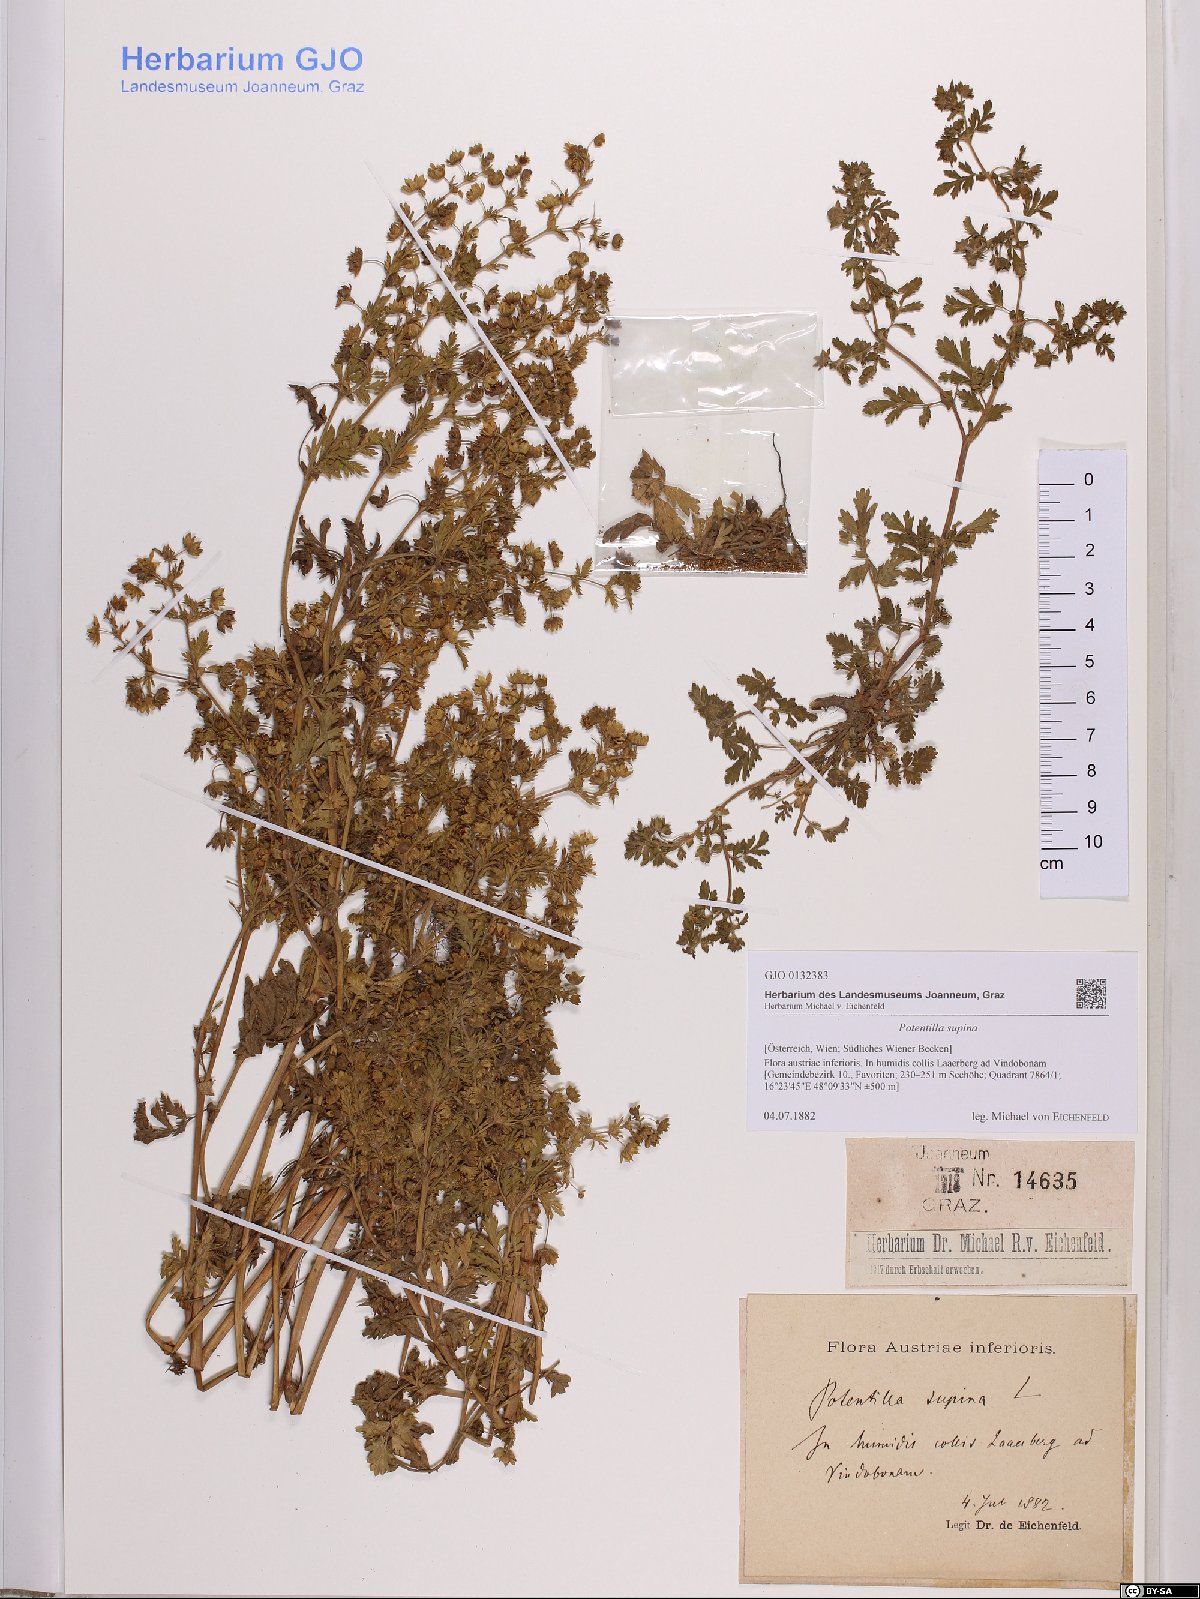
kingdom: Plantae
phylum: Tracheophyta
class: Magnoliopsida
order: Rosales
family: Rosaceae
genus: Potentilla
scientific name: Potentilla supina
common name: Prostrate cinquefoil
